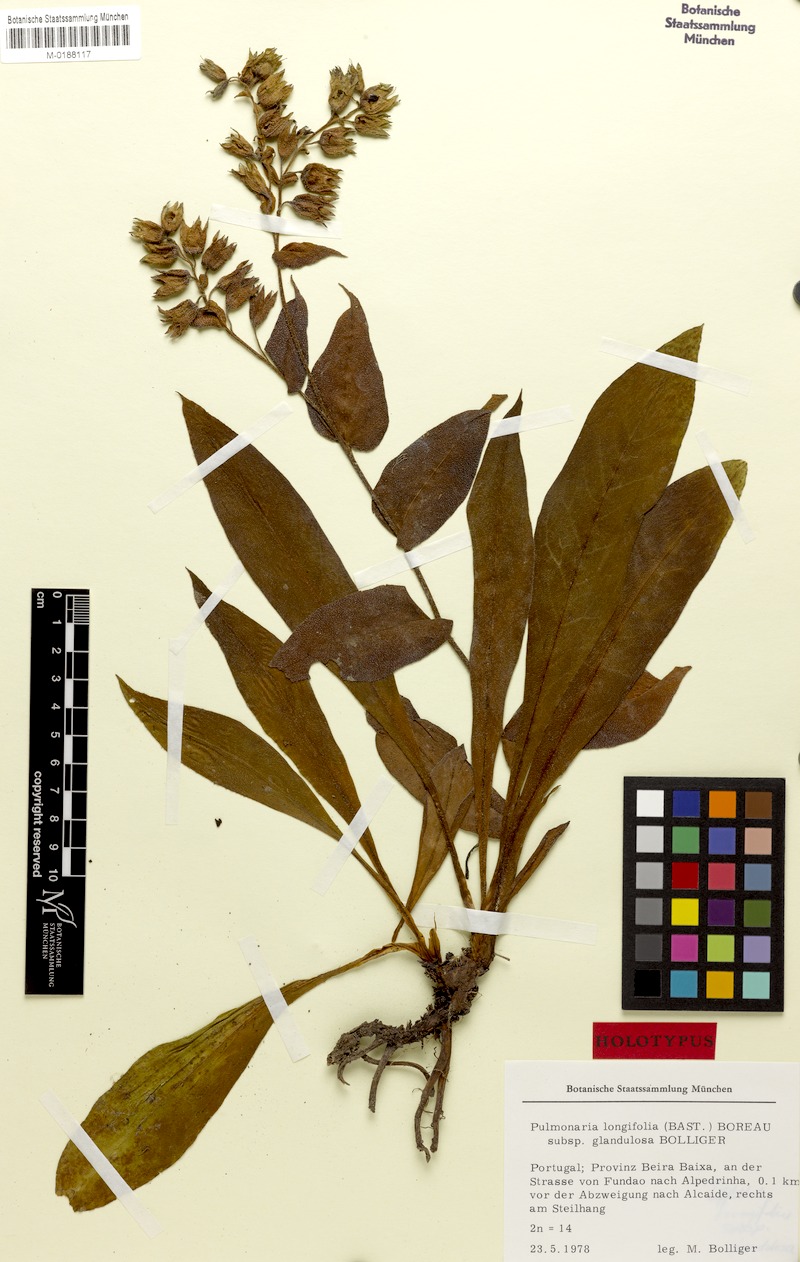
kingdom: Plantae
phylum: Tracheophyta
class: Magnoliopsida
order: Boraginales
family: Boraginaceae
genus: Pulmonaria
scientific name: Pulmonaria longifolia
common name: Narrow-leaved lungwort
